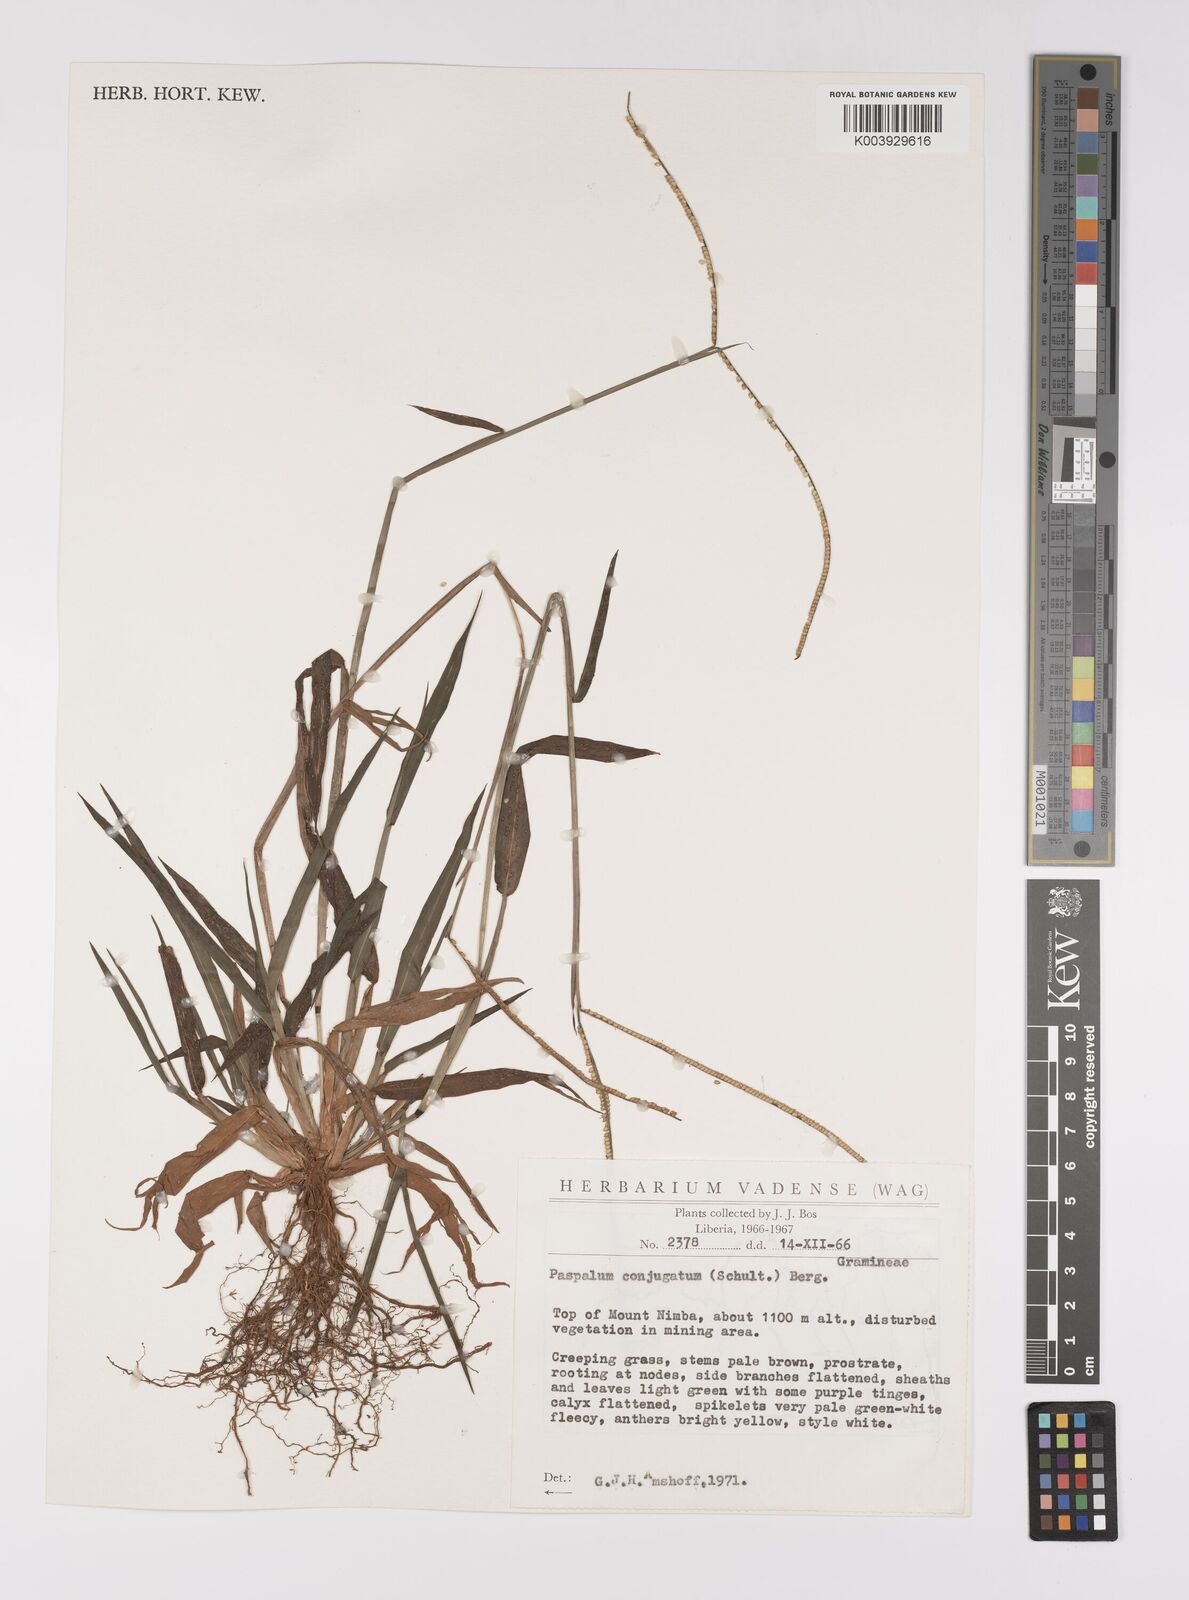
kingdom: Plantae
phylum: Tracheophyta
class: Liliopsida
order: Poales
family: Poaceae
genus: Paspalum
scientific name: Paspalum conjugatum
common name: Hilograss
